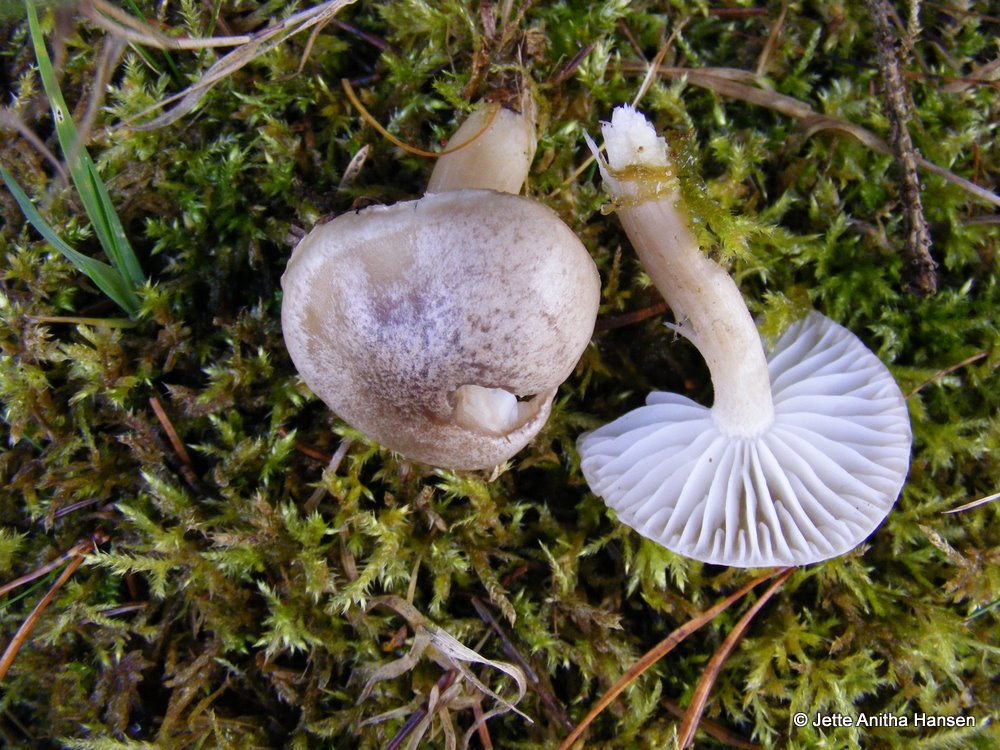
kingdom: Fungi
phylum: Basidiomycota
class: Agaricomycetes
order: Agaricales
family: Hygrophoraceae
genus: Hygrophorus
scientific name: Hygrophorus agathosmus
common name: vellugtende sneglehat
